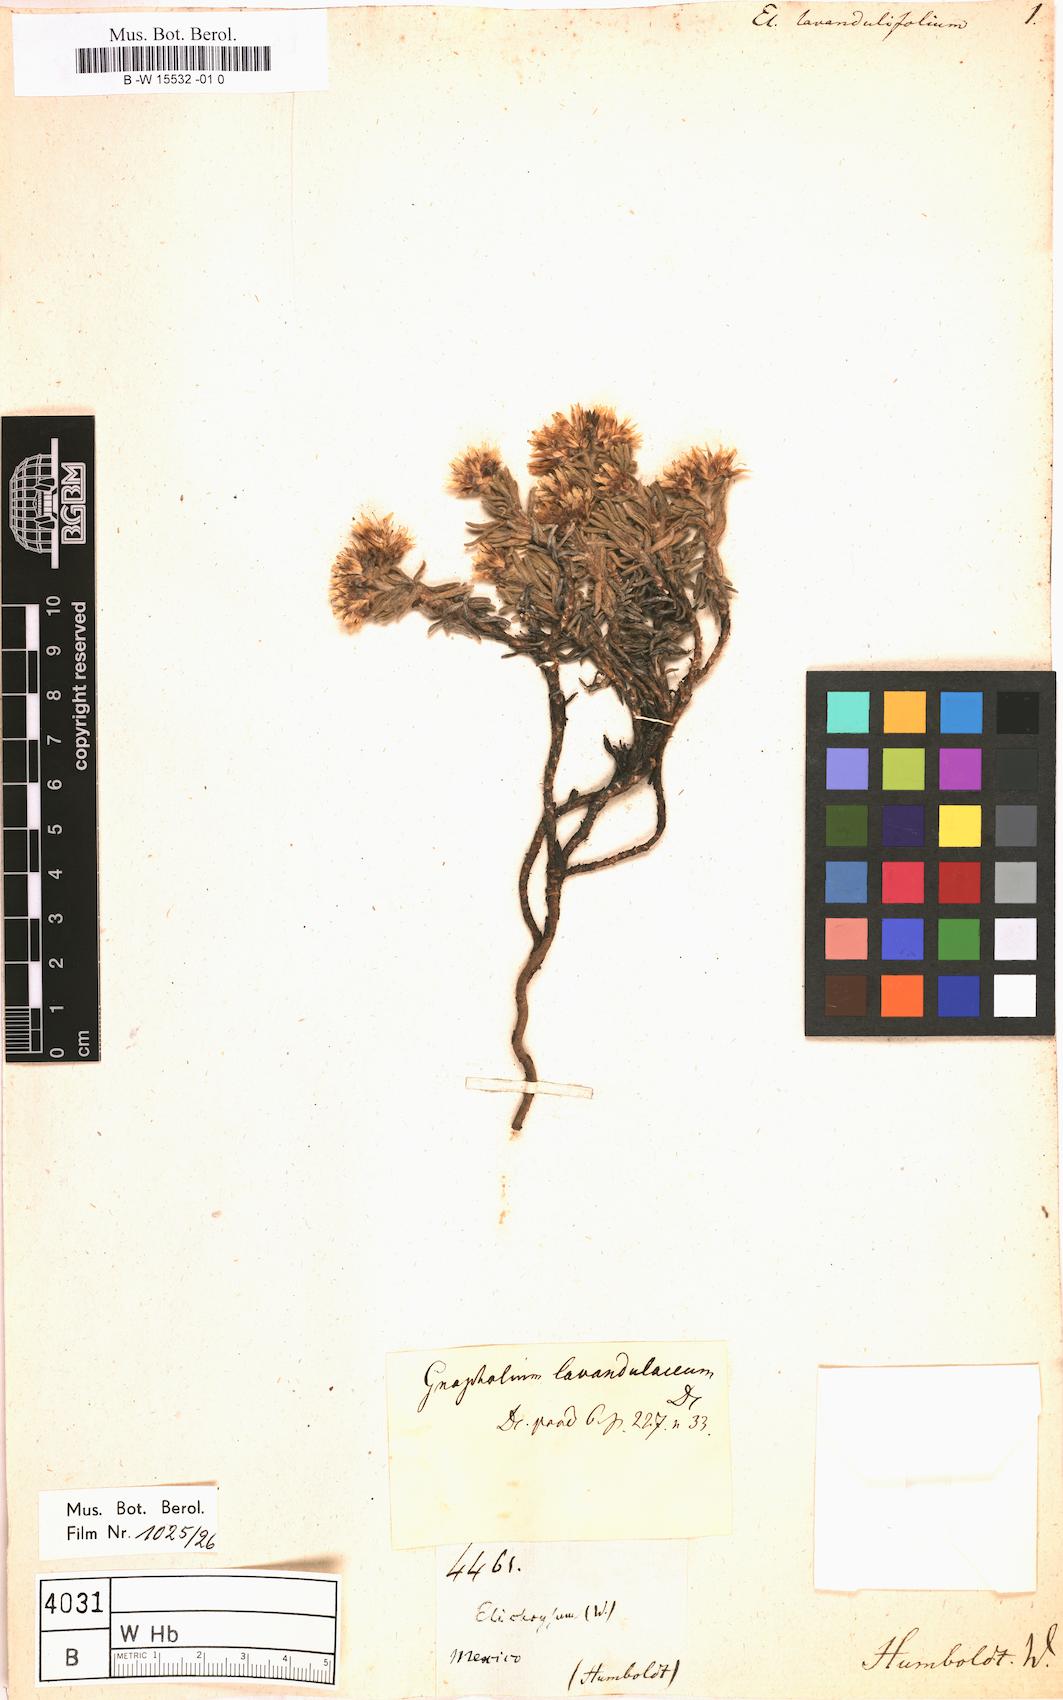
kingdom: Plantae
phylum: Tracheophyta
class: Magnoliopsida
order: Asterales
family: Asteraceae
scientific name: Asteraceae
